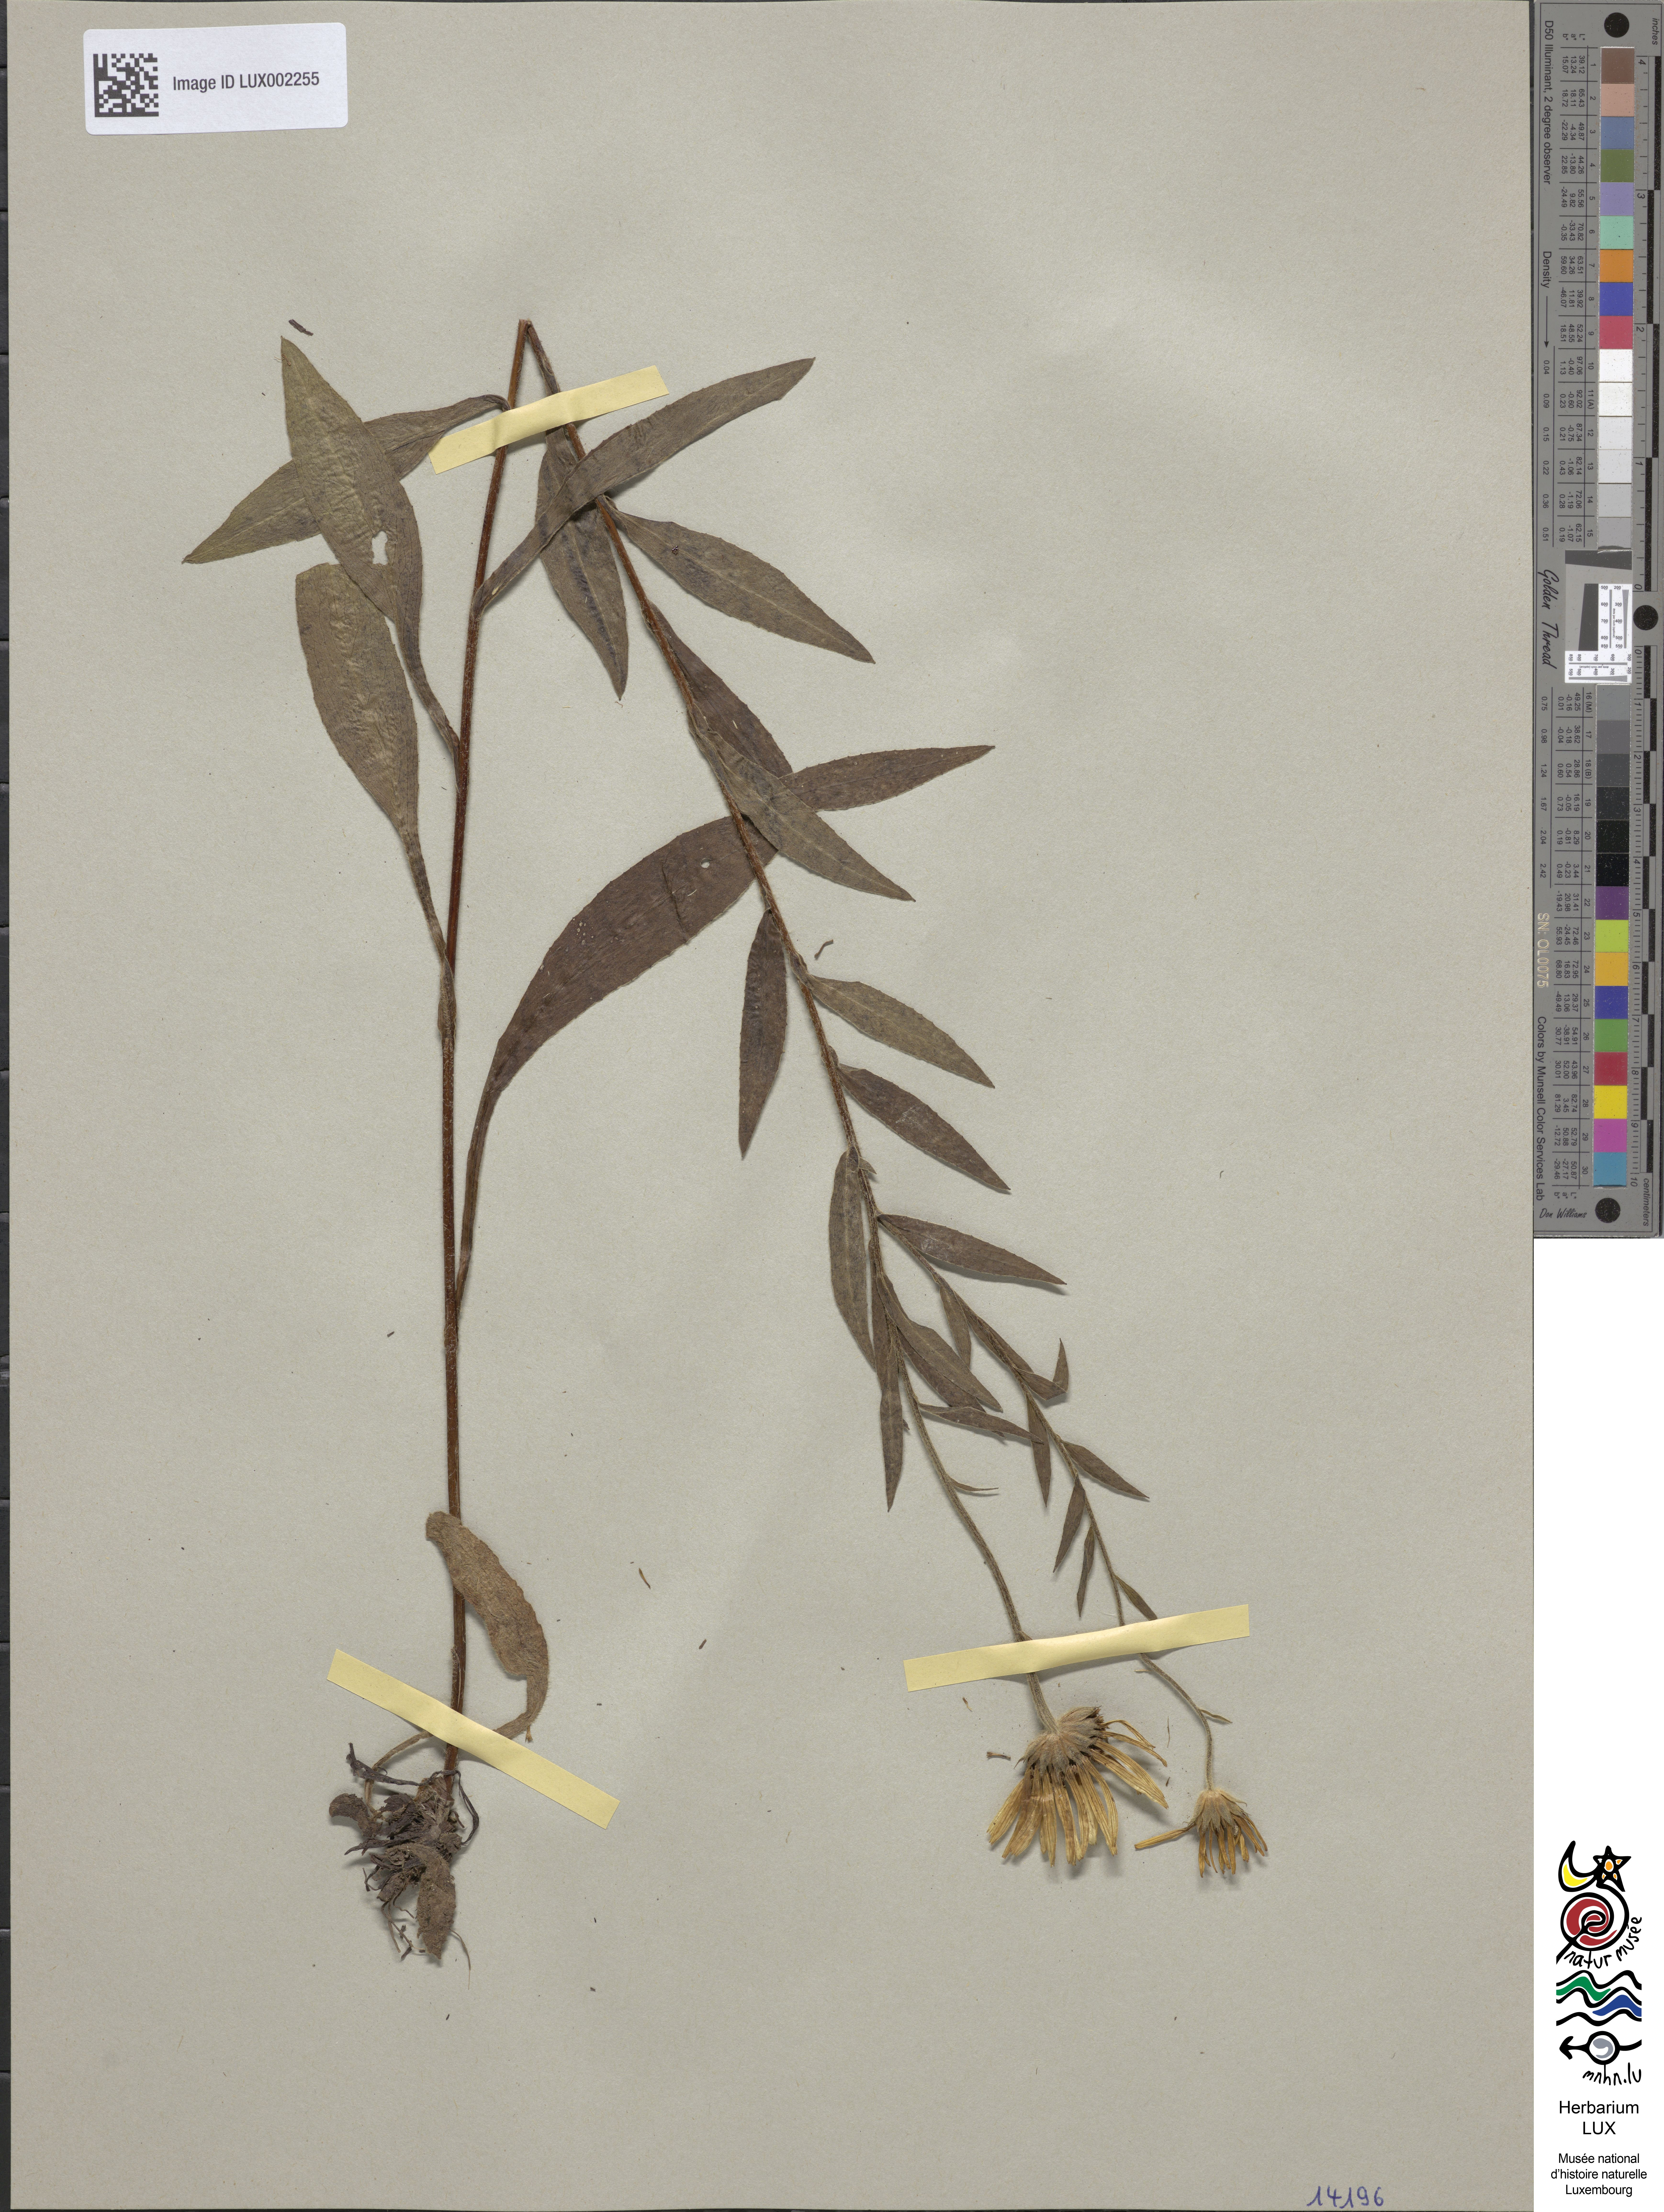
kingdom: Plantae
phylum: Tracheophyta
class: Magnoliopsida
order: Asterales
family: Asteraceae
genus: Buphthalmum
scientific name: Buphthalmum salicifolium
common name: Willow-leaved yellow-oxeye
